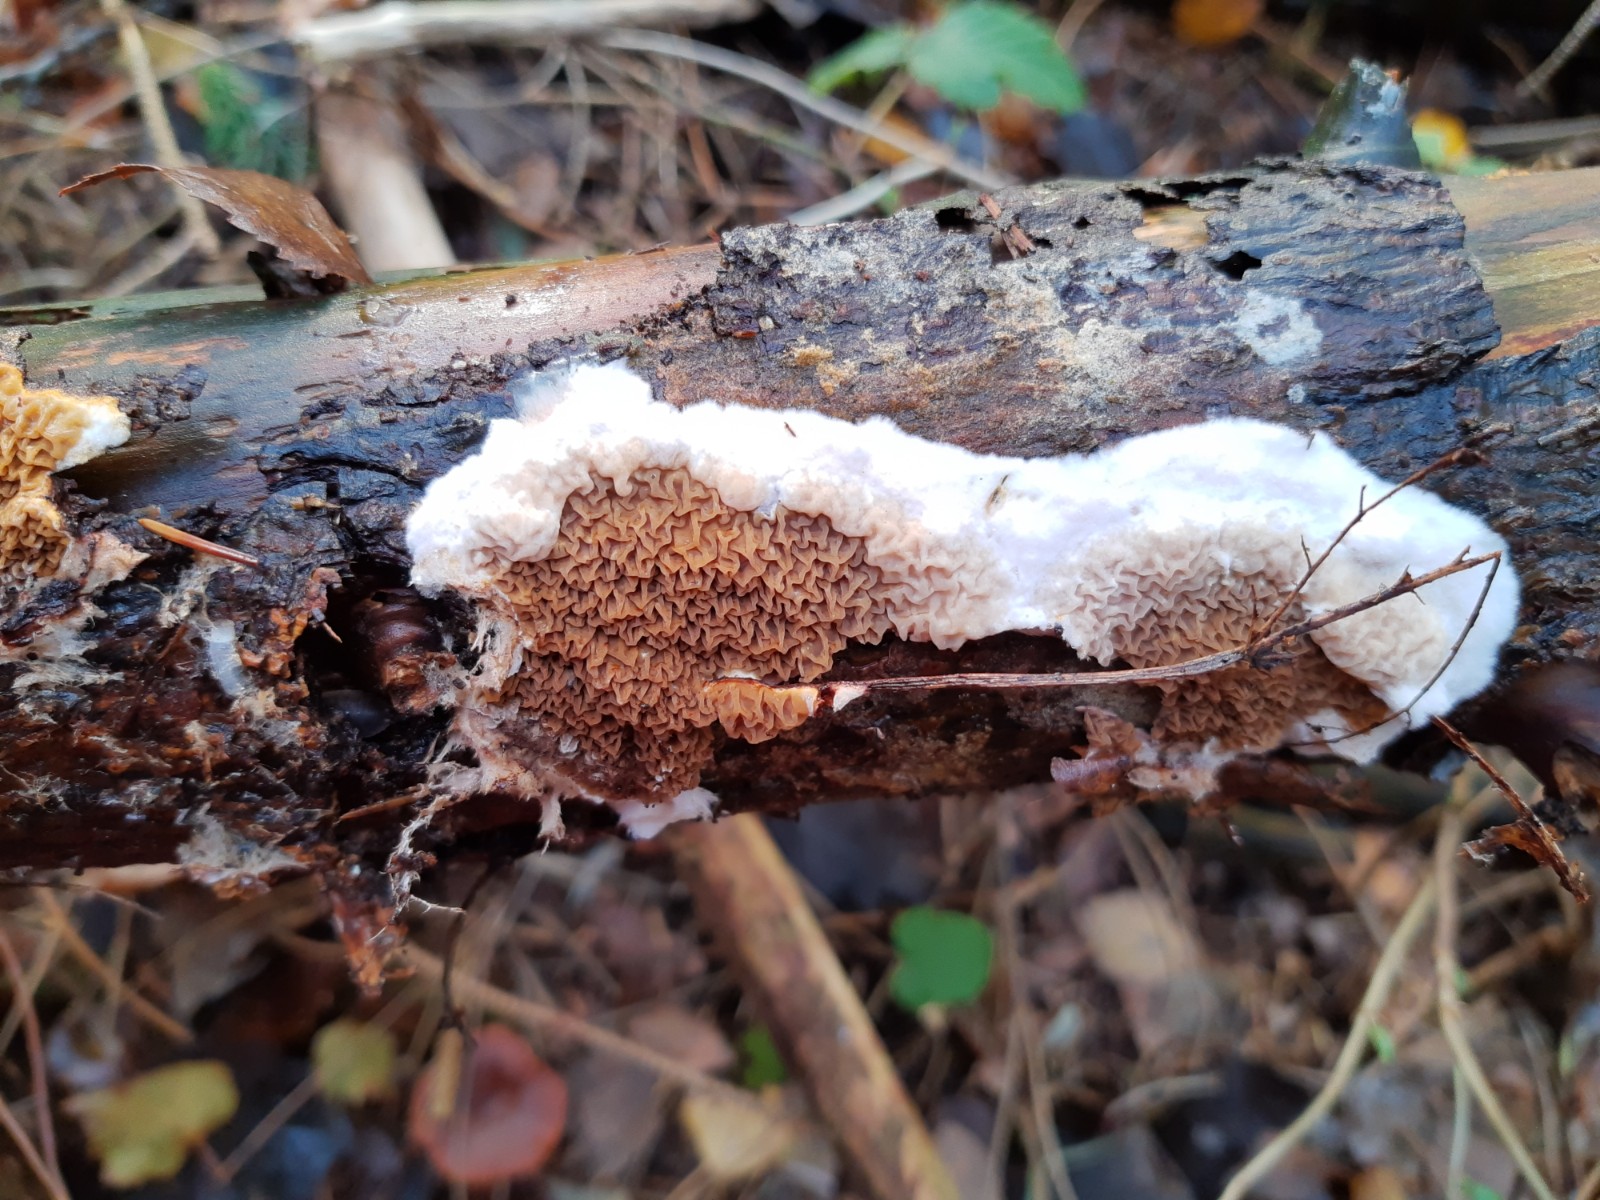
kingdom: Fungi
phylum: Basidiomycota
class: Agaricomycetes
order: Boletales
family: Serpulaceae
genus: Serpula
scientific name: Serpula himantioides
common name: tyndkødet hussvamp
